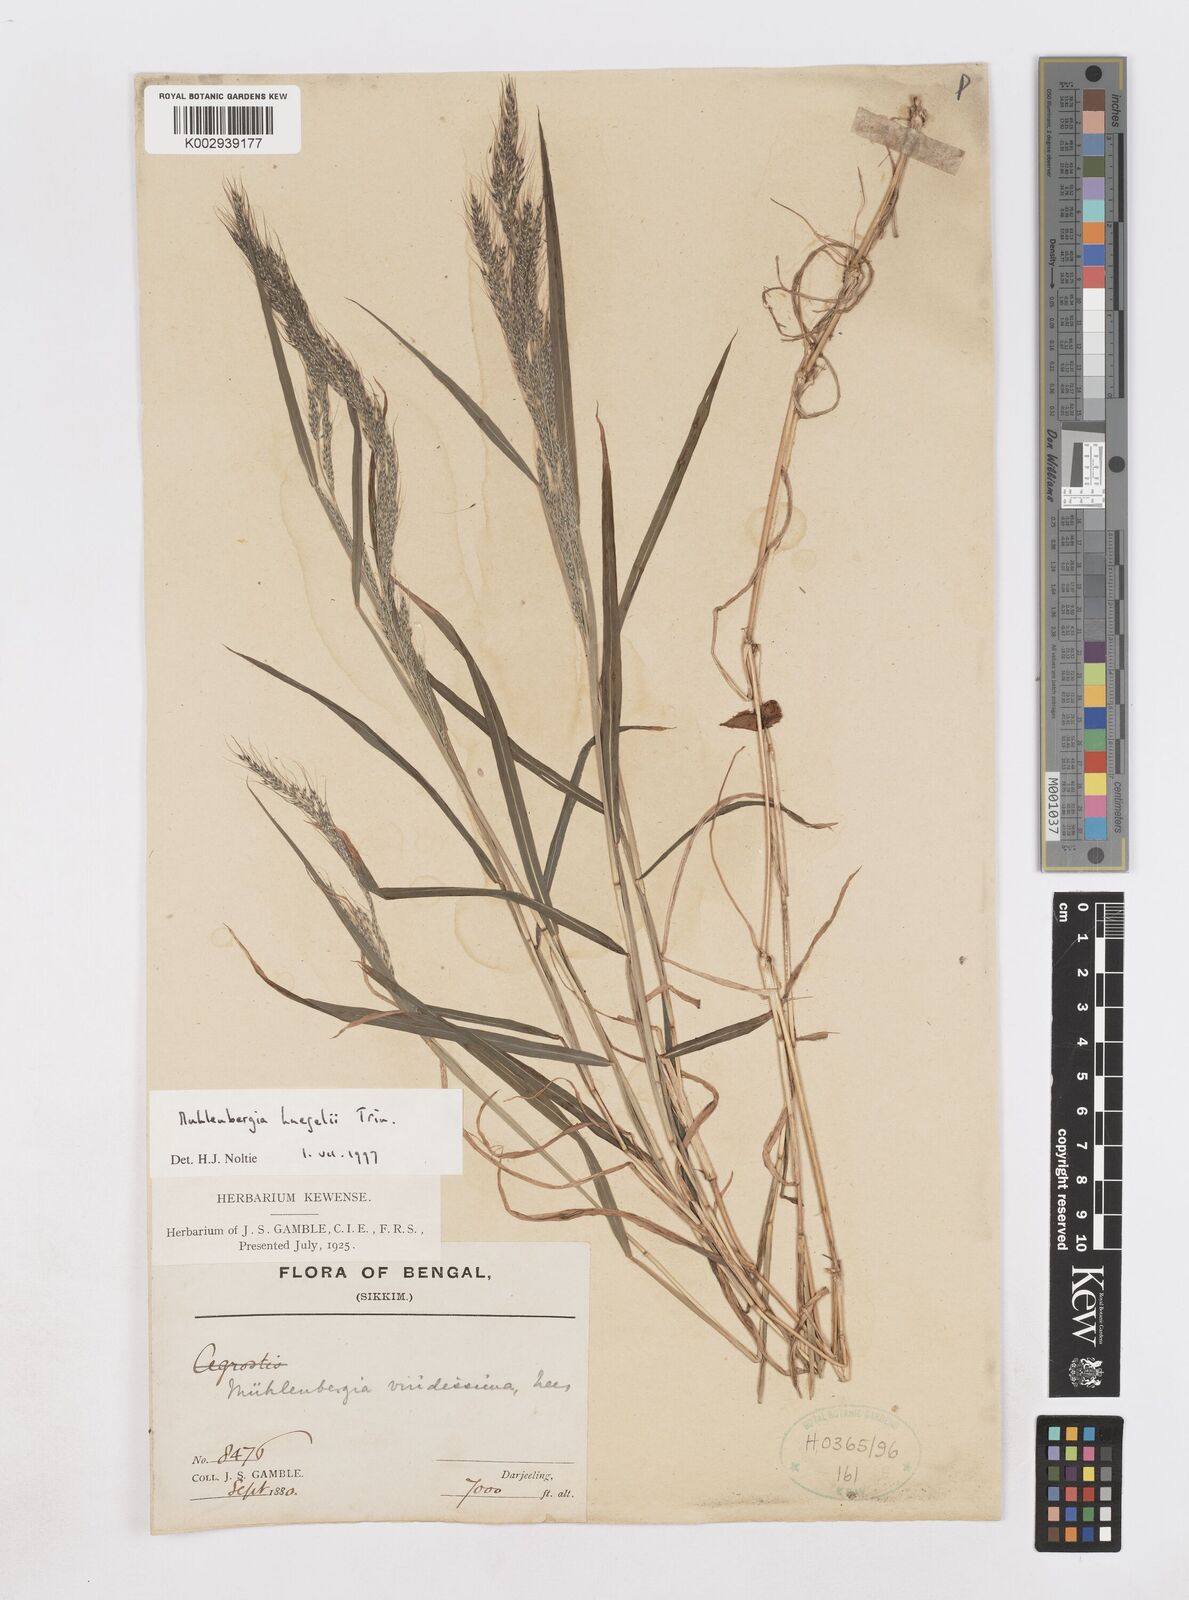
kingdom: Plantae
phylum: Tracheophyta
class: Liliopsida
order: Poales
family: Poaceae
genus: Muhlenbergia
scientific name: Muhlenbergia huegelii
